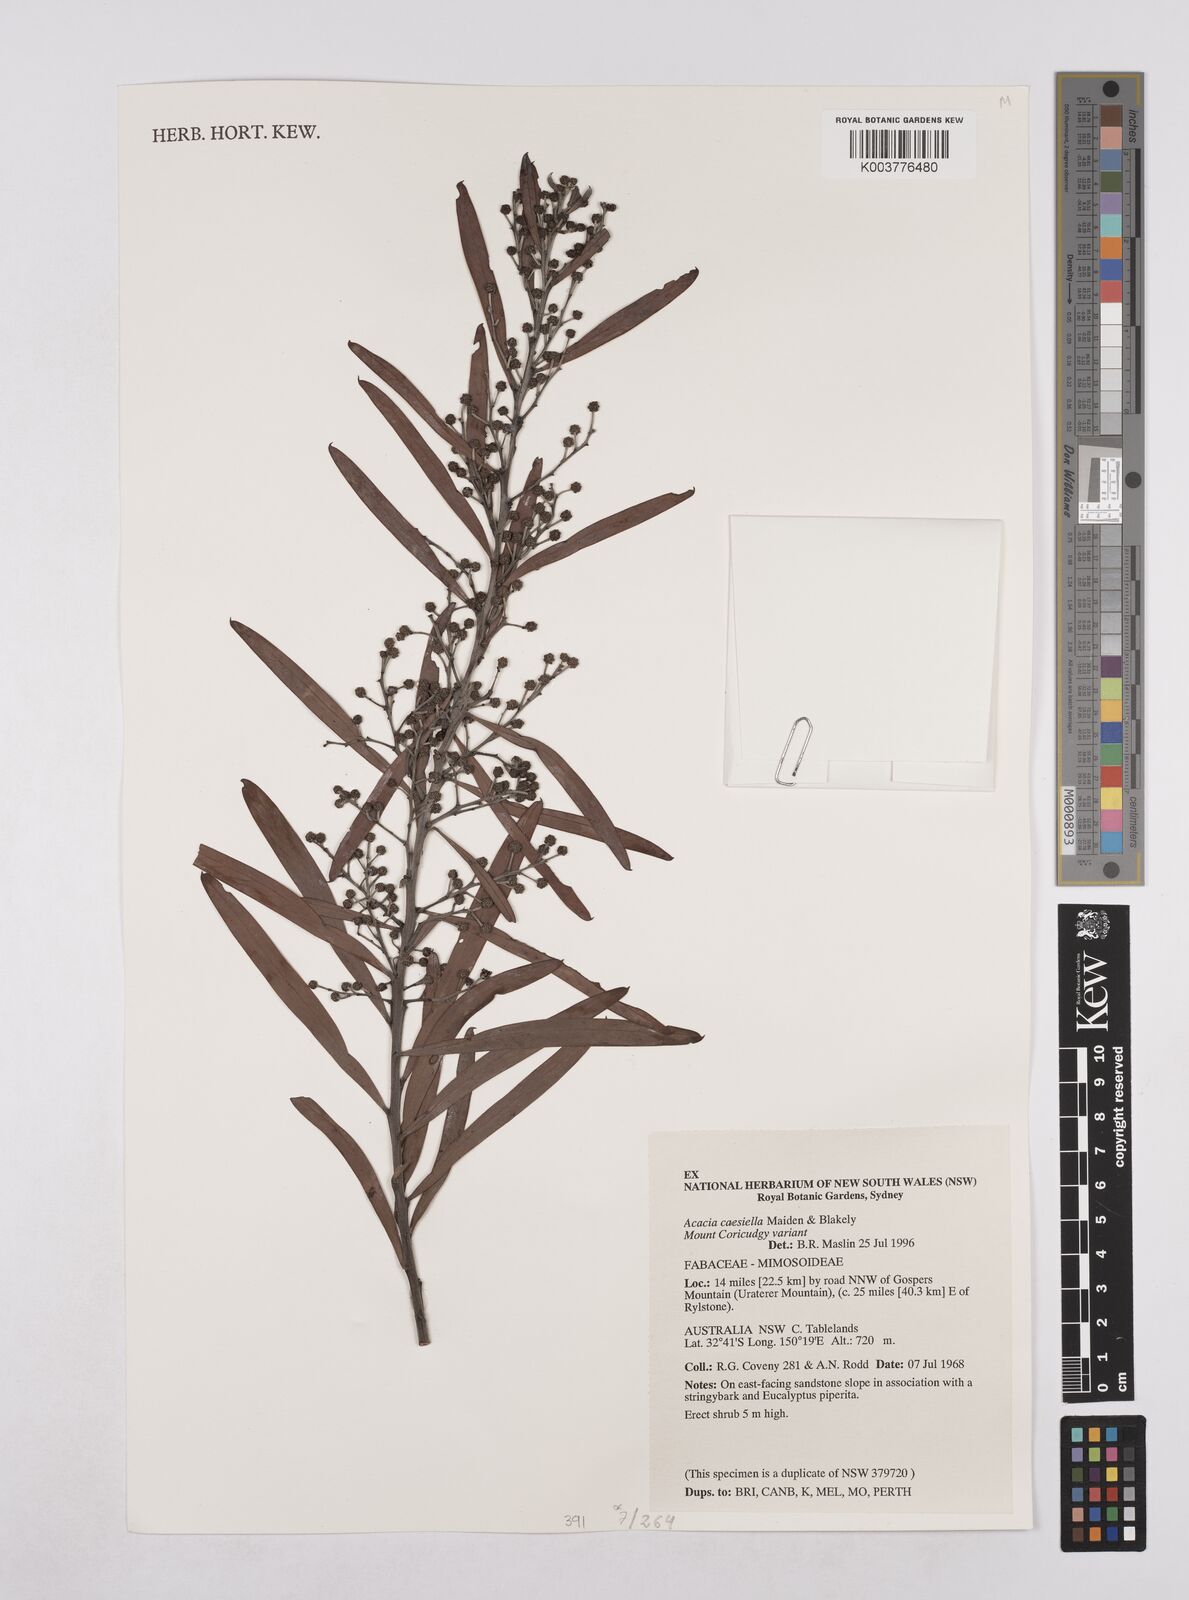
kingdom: Plantae
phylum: Tracheophyta
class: Magnoliopsida
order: Fabales
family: Fabaceae
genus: Acacia
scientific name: Acacia caesiella
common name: Tableland wattle
